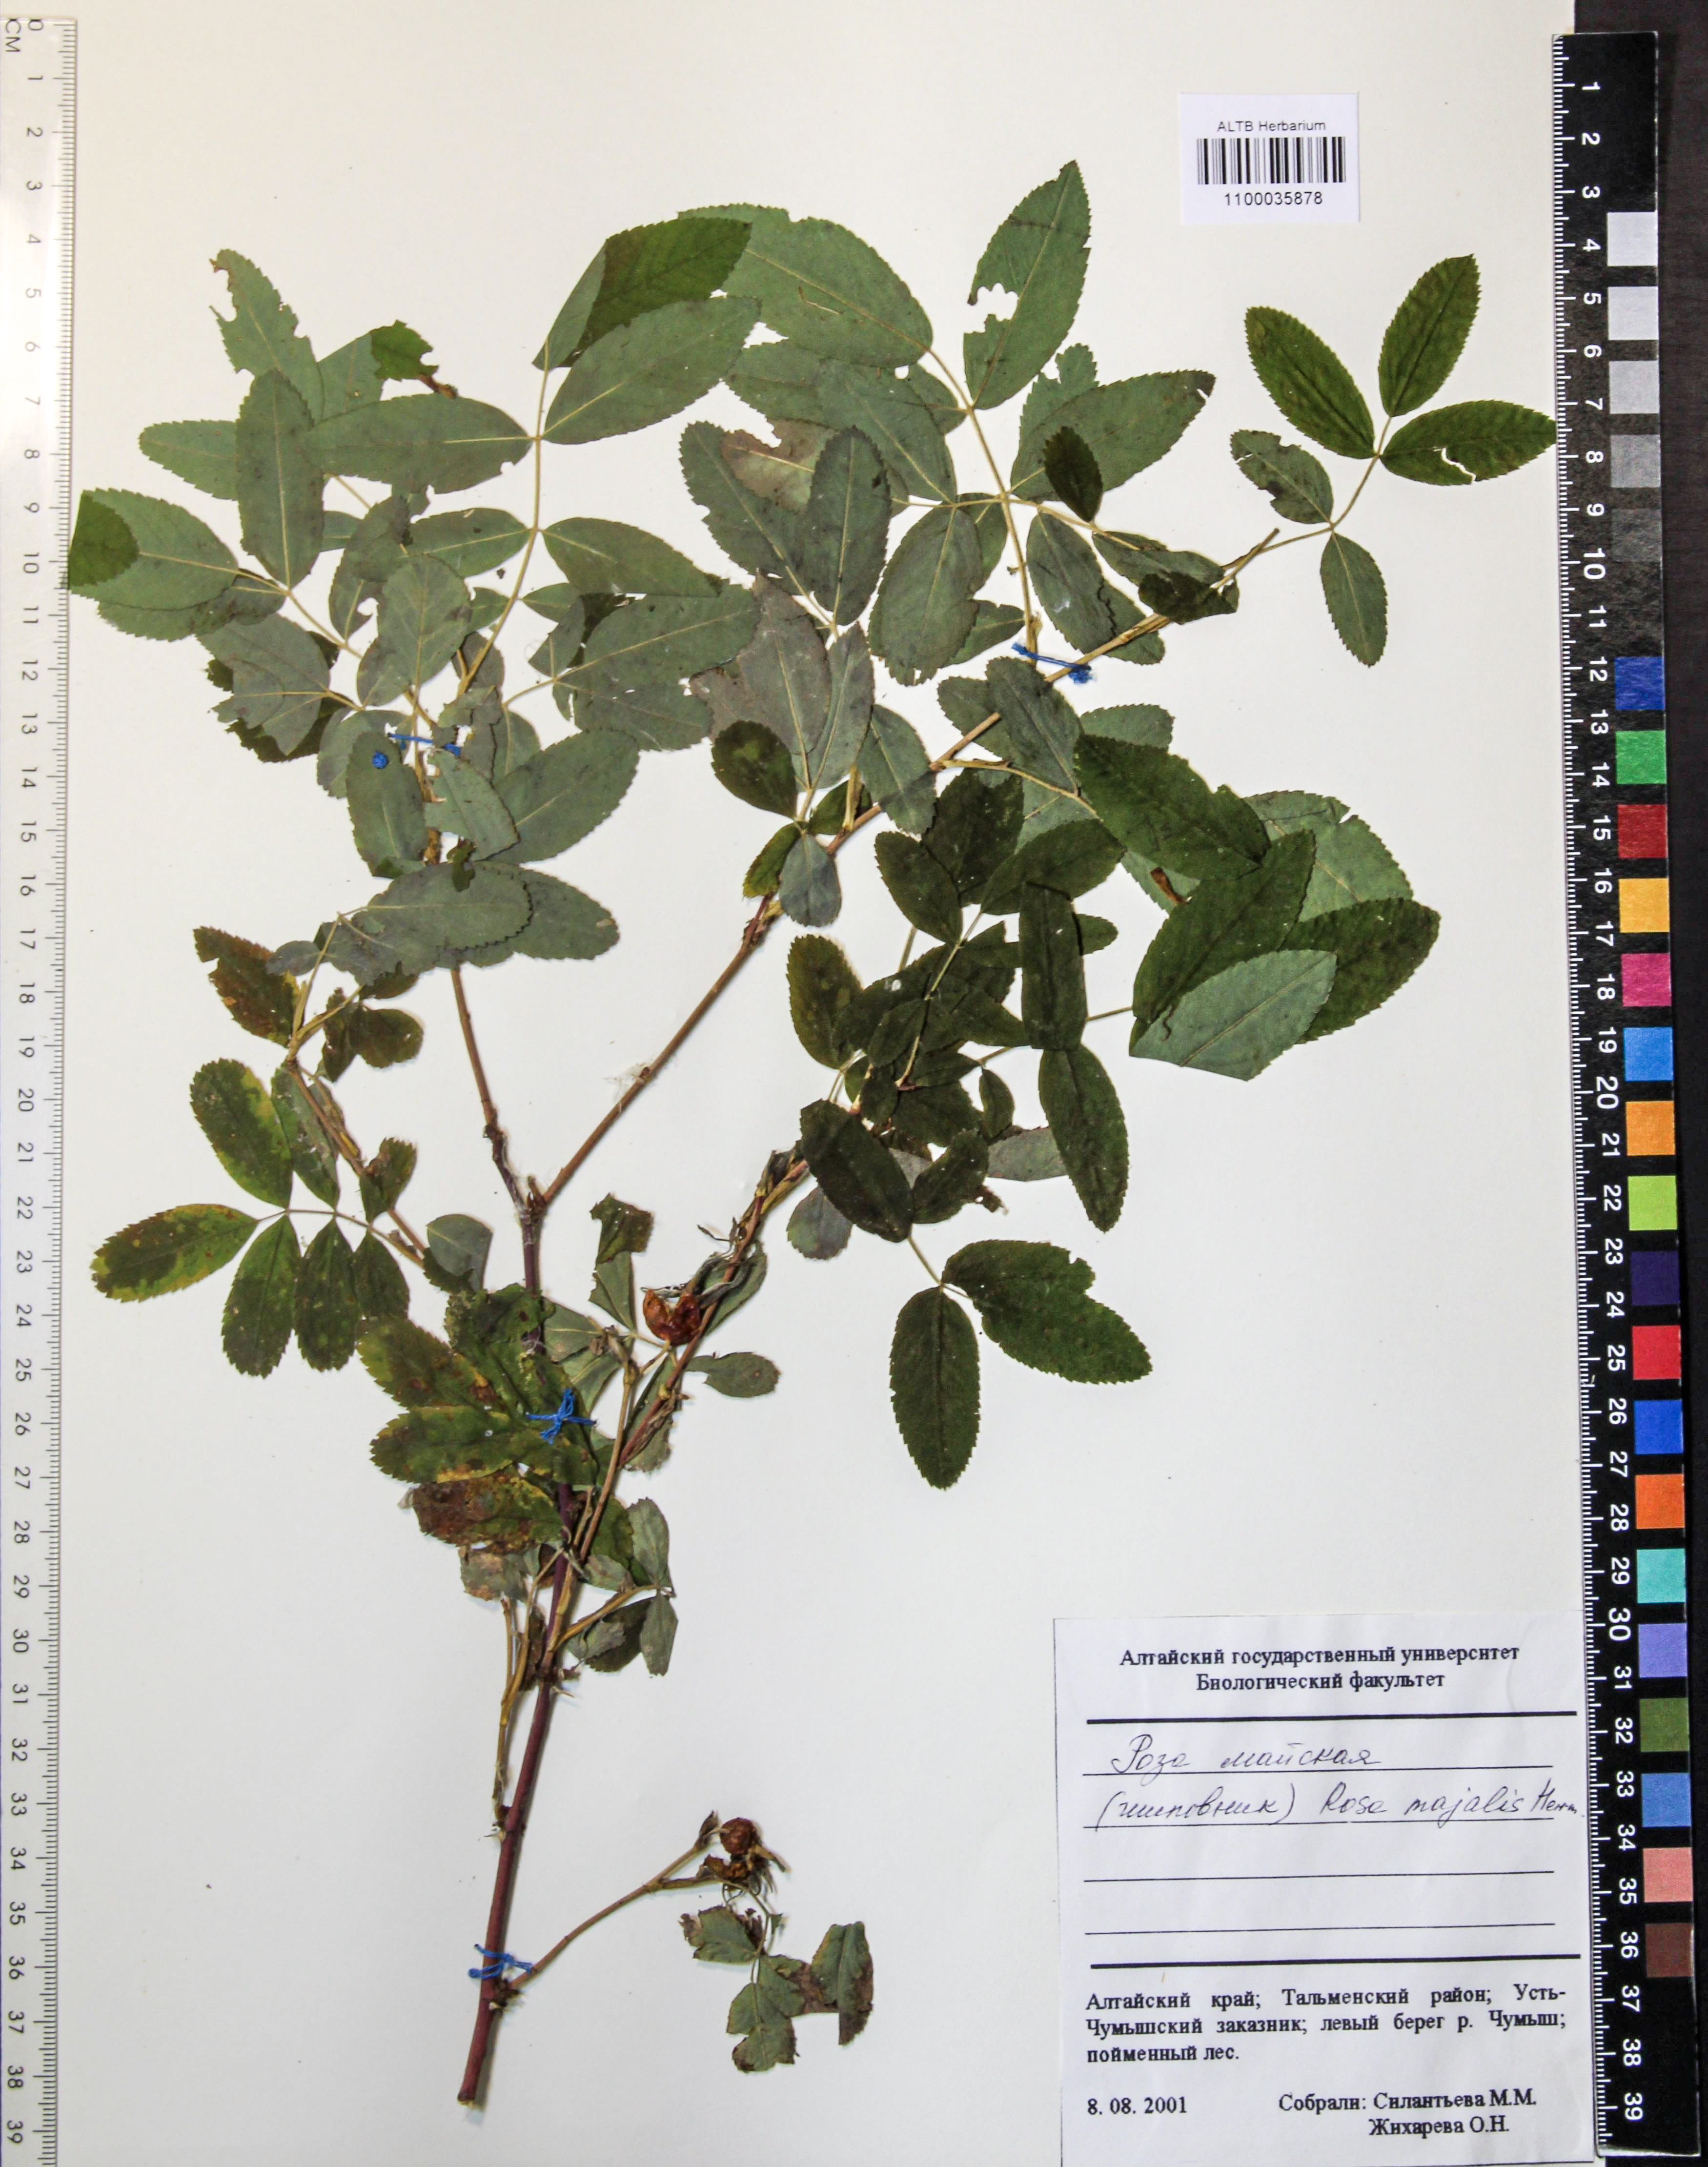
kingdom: Plantae
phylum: Tracheophyta
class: Magnoliopsida
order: Rosales
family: Rosaceae
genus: Rosa
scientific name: Rosa majalis
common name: Cinnamon rose
